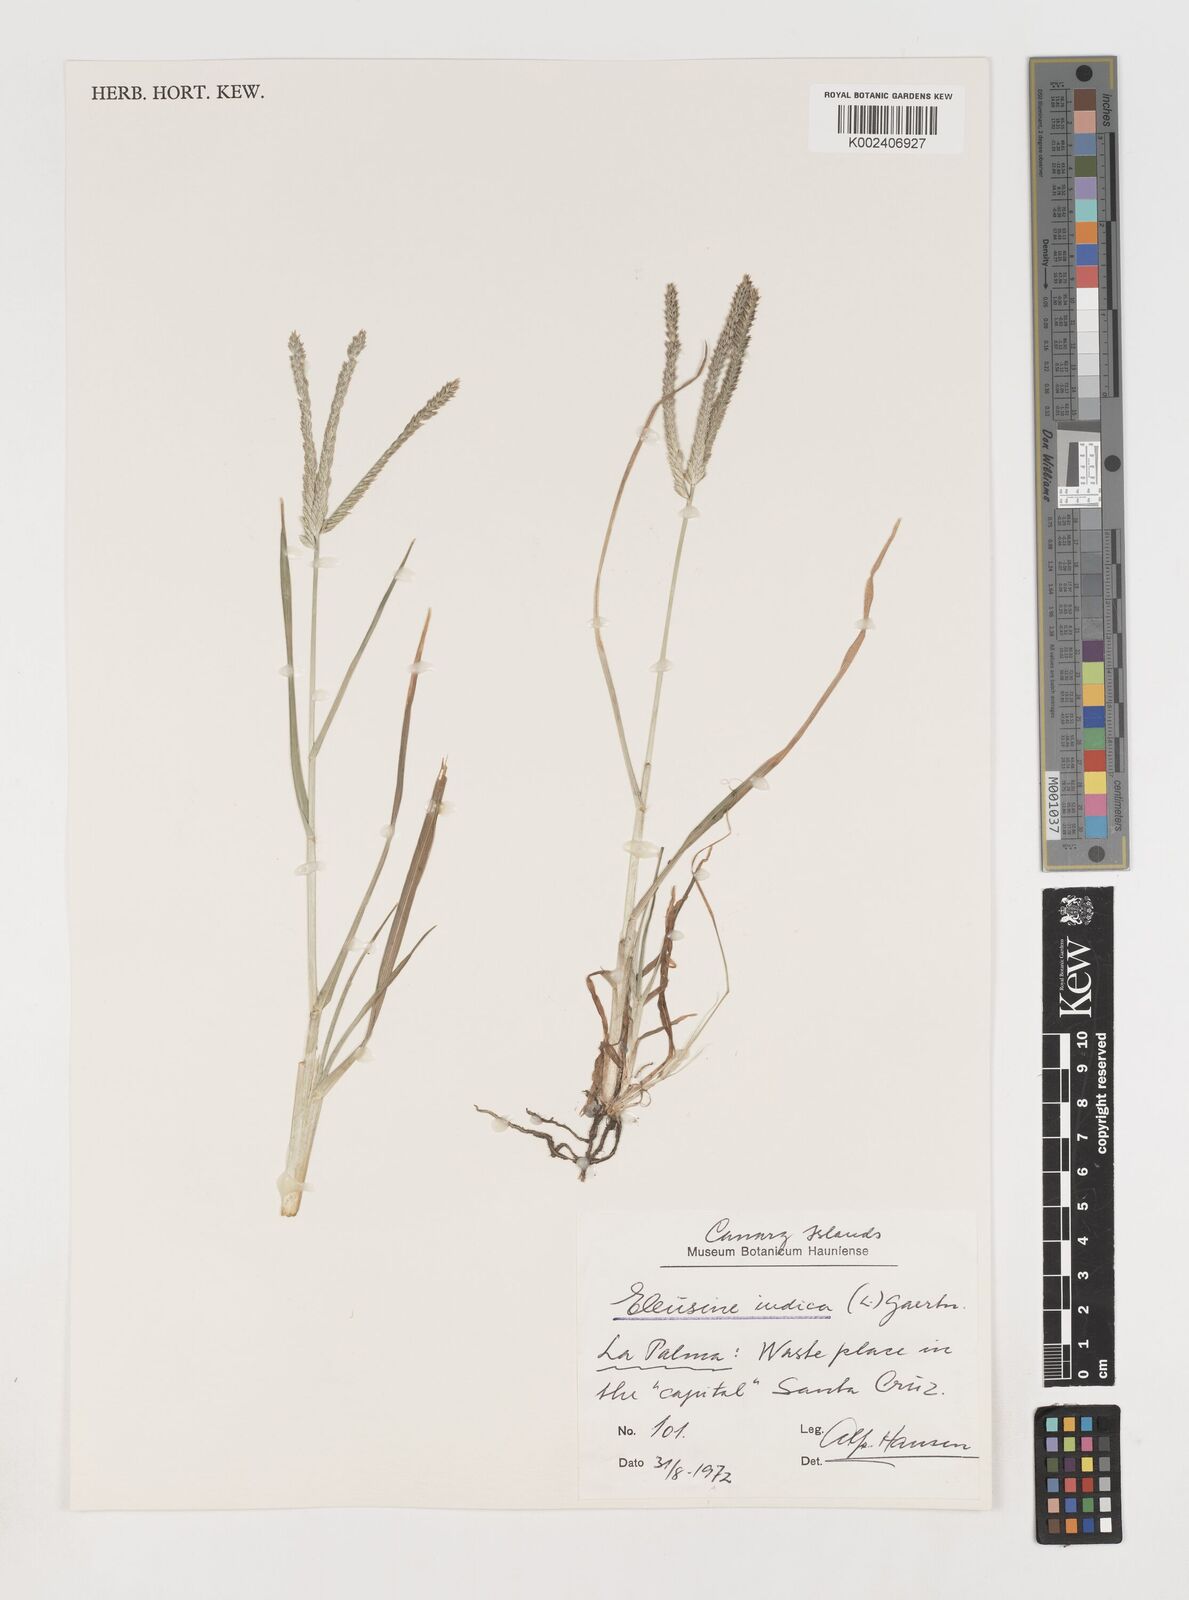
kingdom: Plantae
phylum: Tracheophyta
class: Liliopsida
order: Poales
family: Poaceae
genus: Eleusine
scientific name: Eleusine indica
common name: Yard-grass
